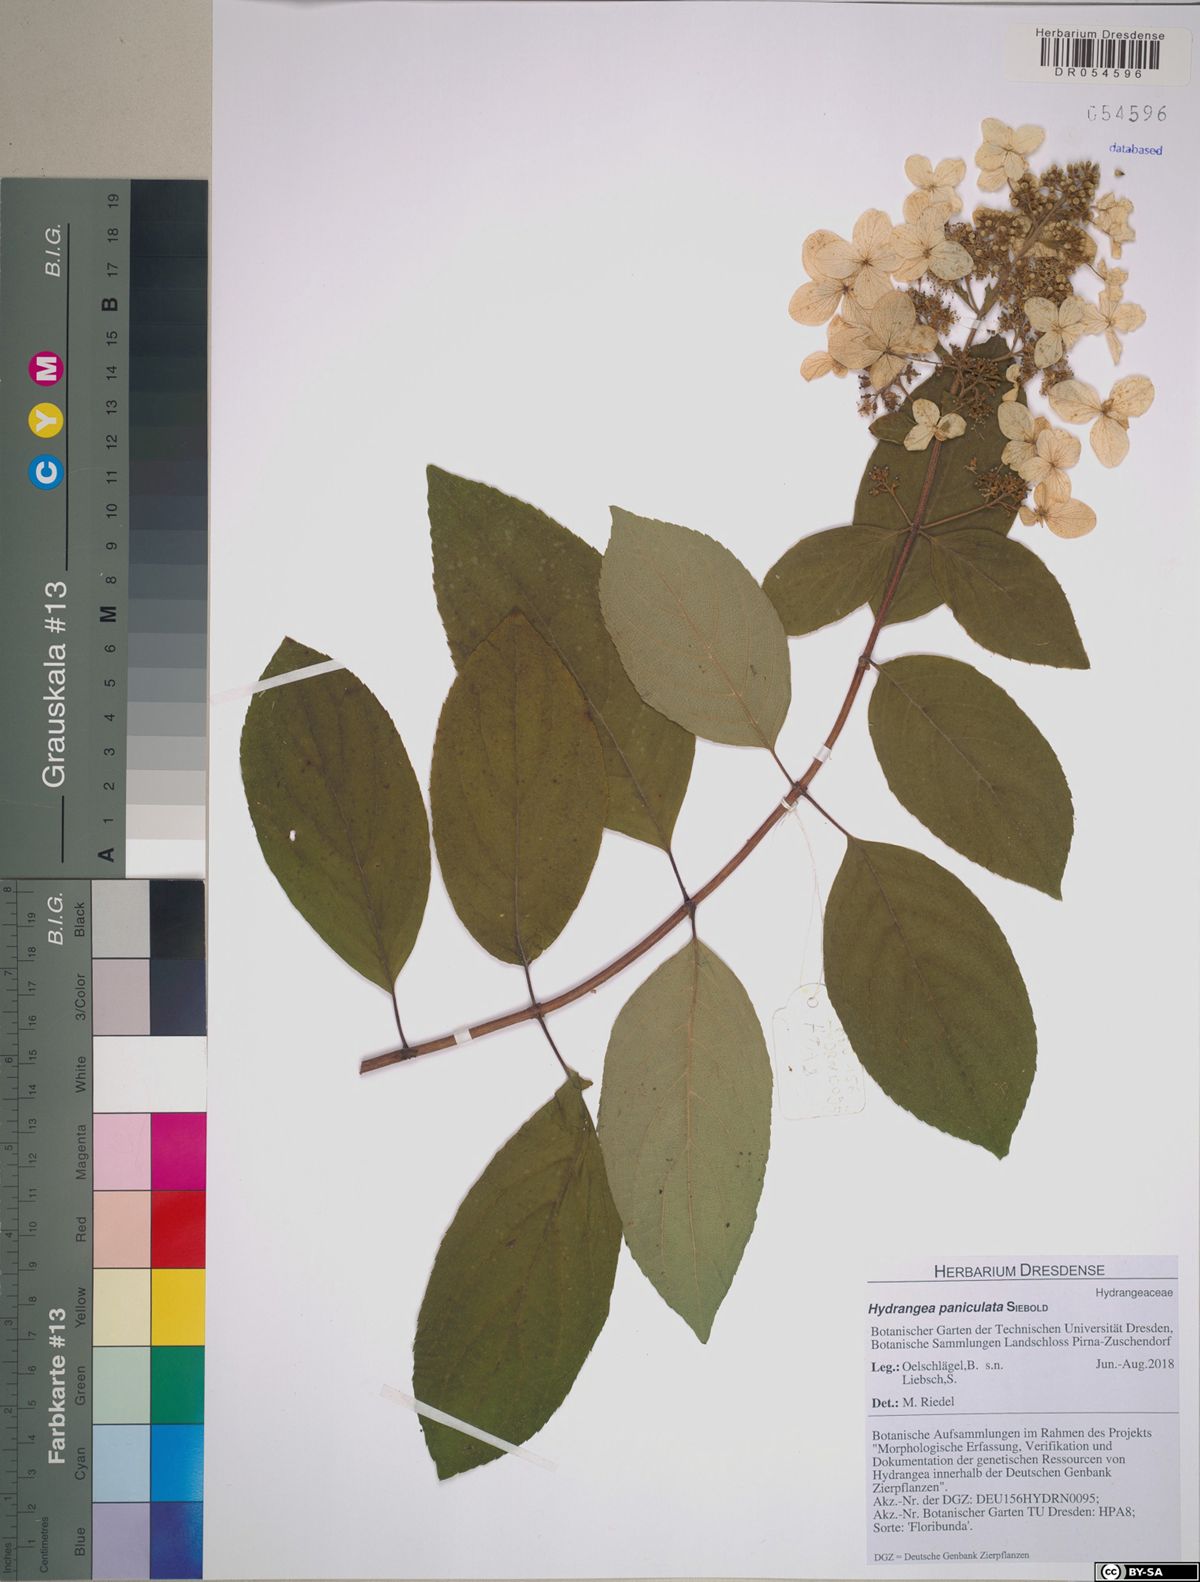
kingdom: Plantae
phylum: Tracheophyta
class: Magnoliopsida
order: Cornales
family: Hydrangeaceae
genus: Hydrangea
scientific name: Hydrangea paniculata
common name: Panicled hydrangea
